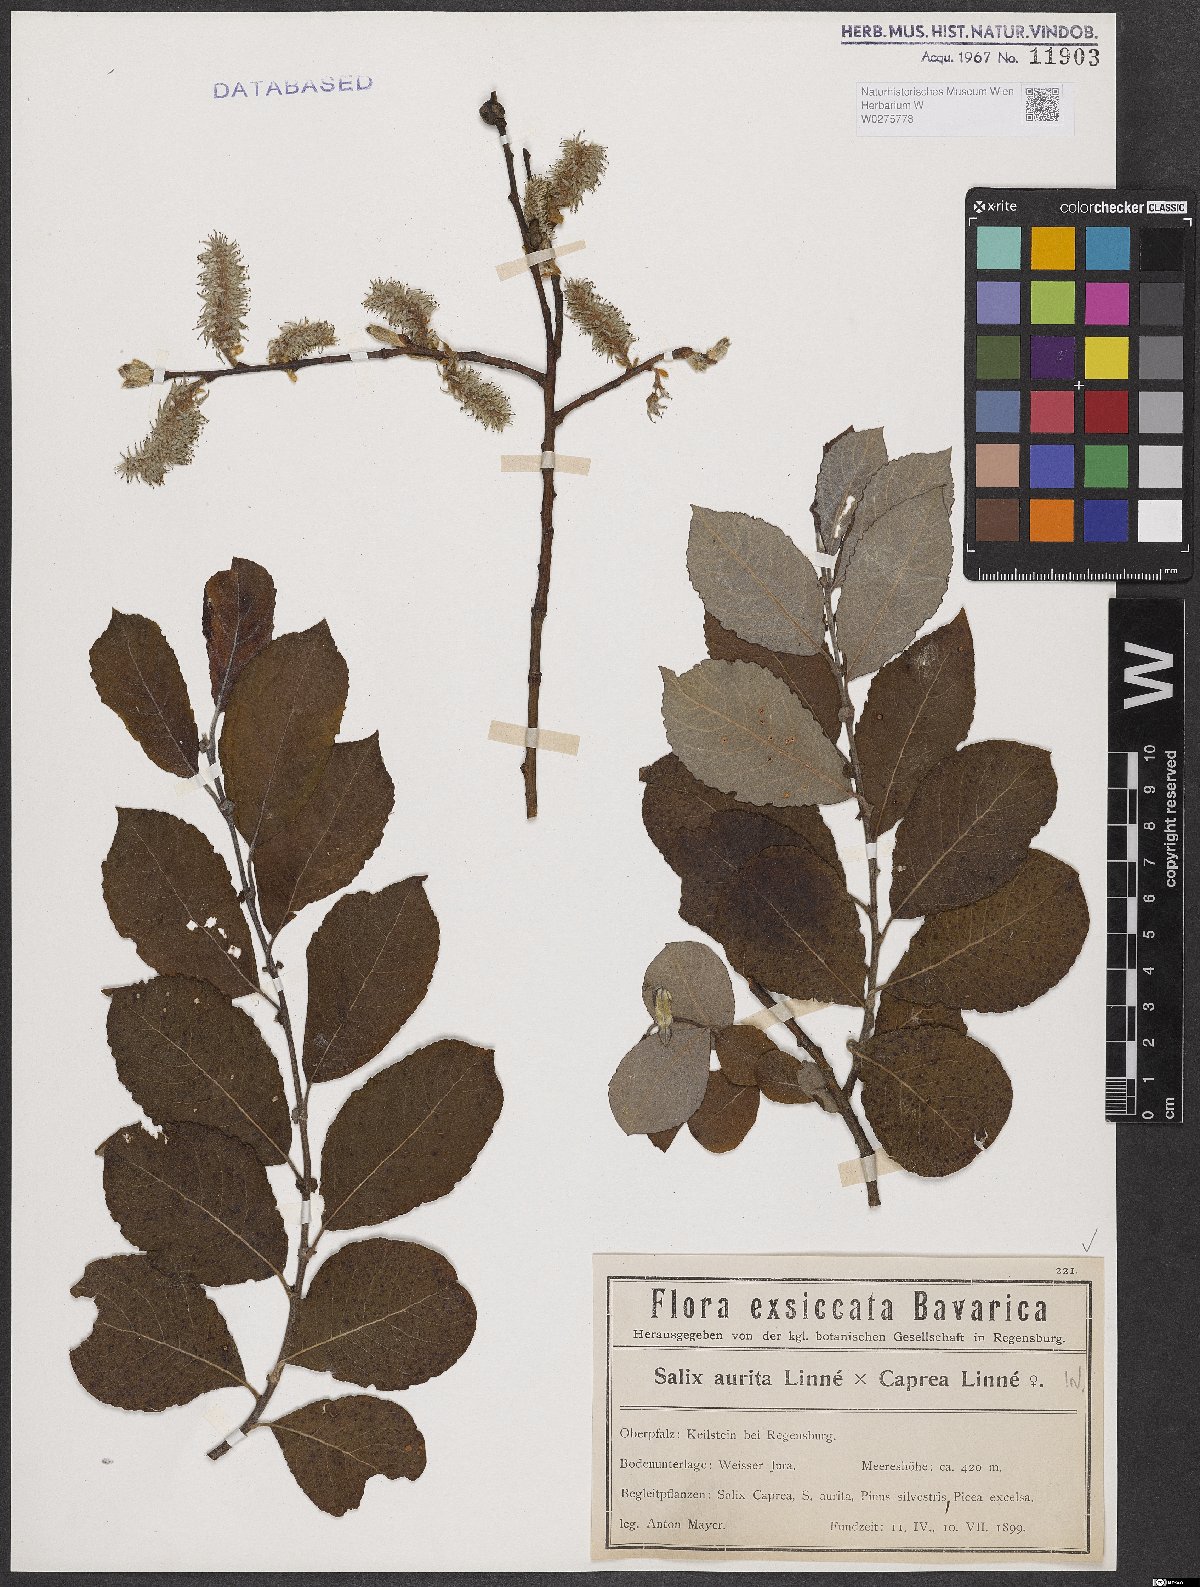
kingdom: Plantae
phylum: Tracheophyta
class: Magnoliopsida
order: Malpighiales
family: Salicaceae
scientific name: Salicaceae
